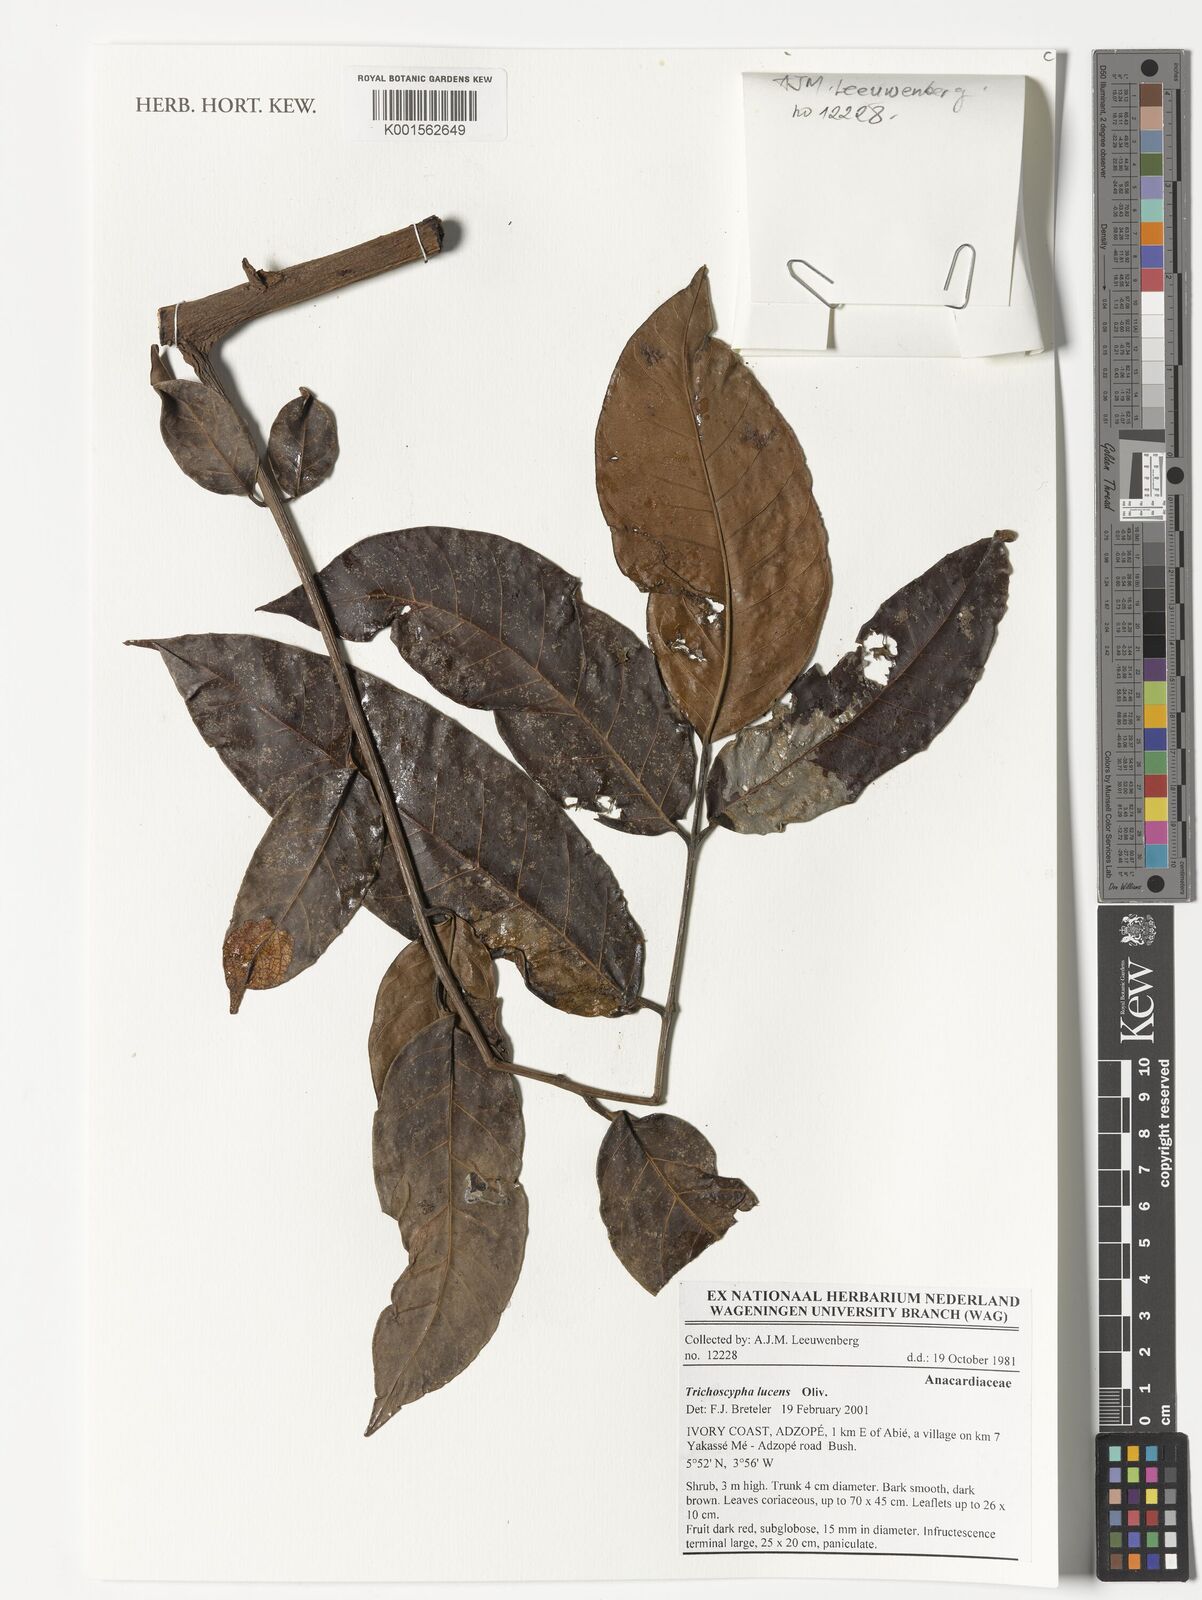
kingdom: Plantae
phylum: Tracheophyta
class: Magnoliopsida
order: Sapindales
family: Anacardiaceae
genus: Trichoscypha
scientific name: Trichoscypha lucens
